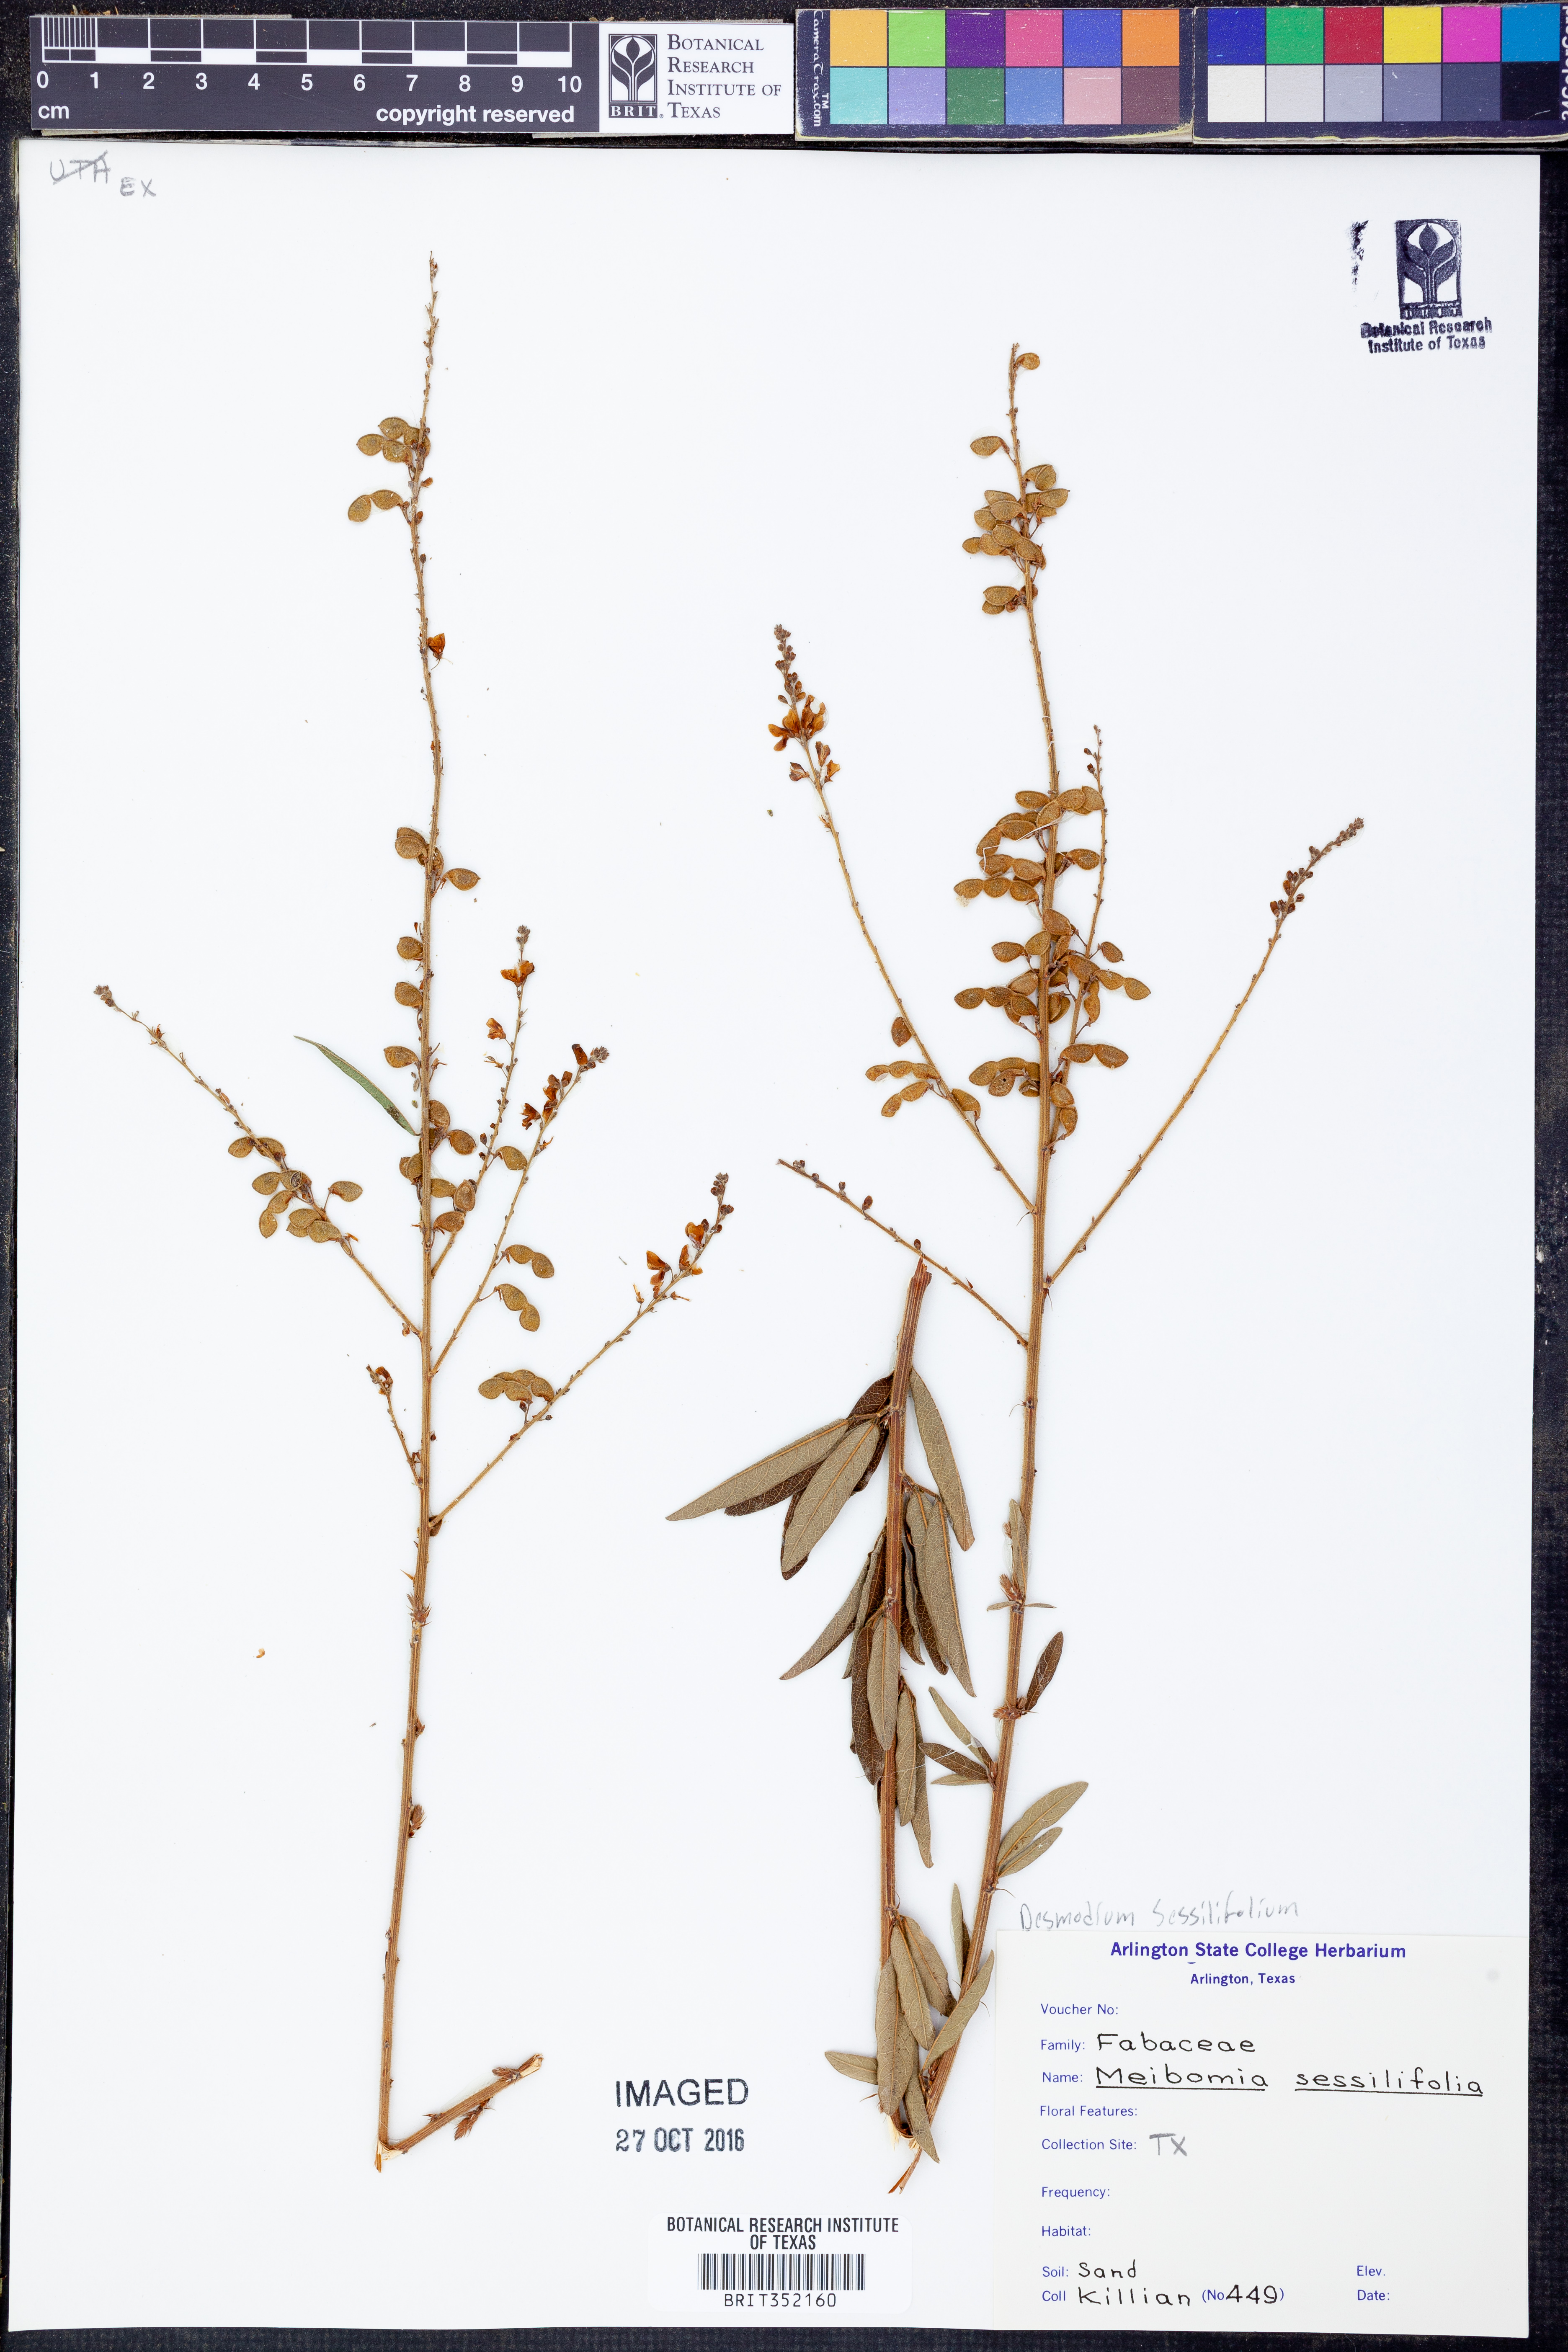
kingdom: Plantae
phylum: Tracheophyta
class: Magnoliopsida
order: Fabales
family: Fabaceae
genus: Desmodium
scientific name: Desmodium sessilifolium
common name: Sessile tick-clover
